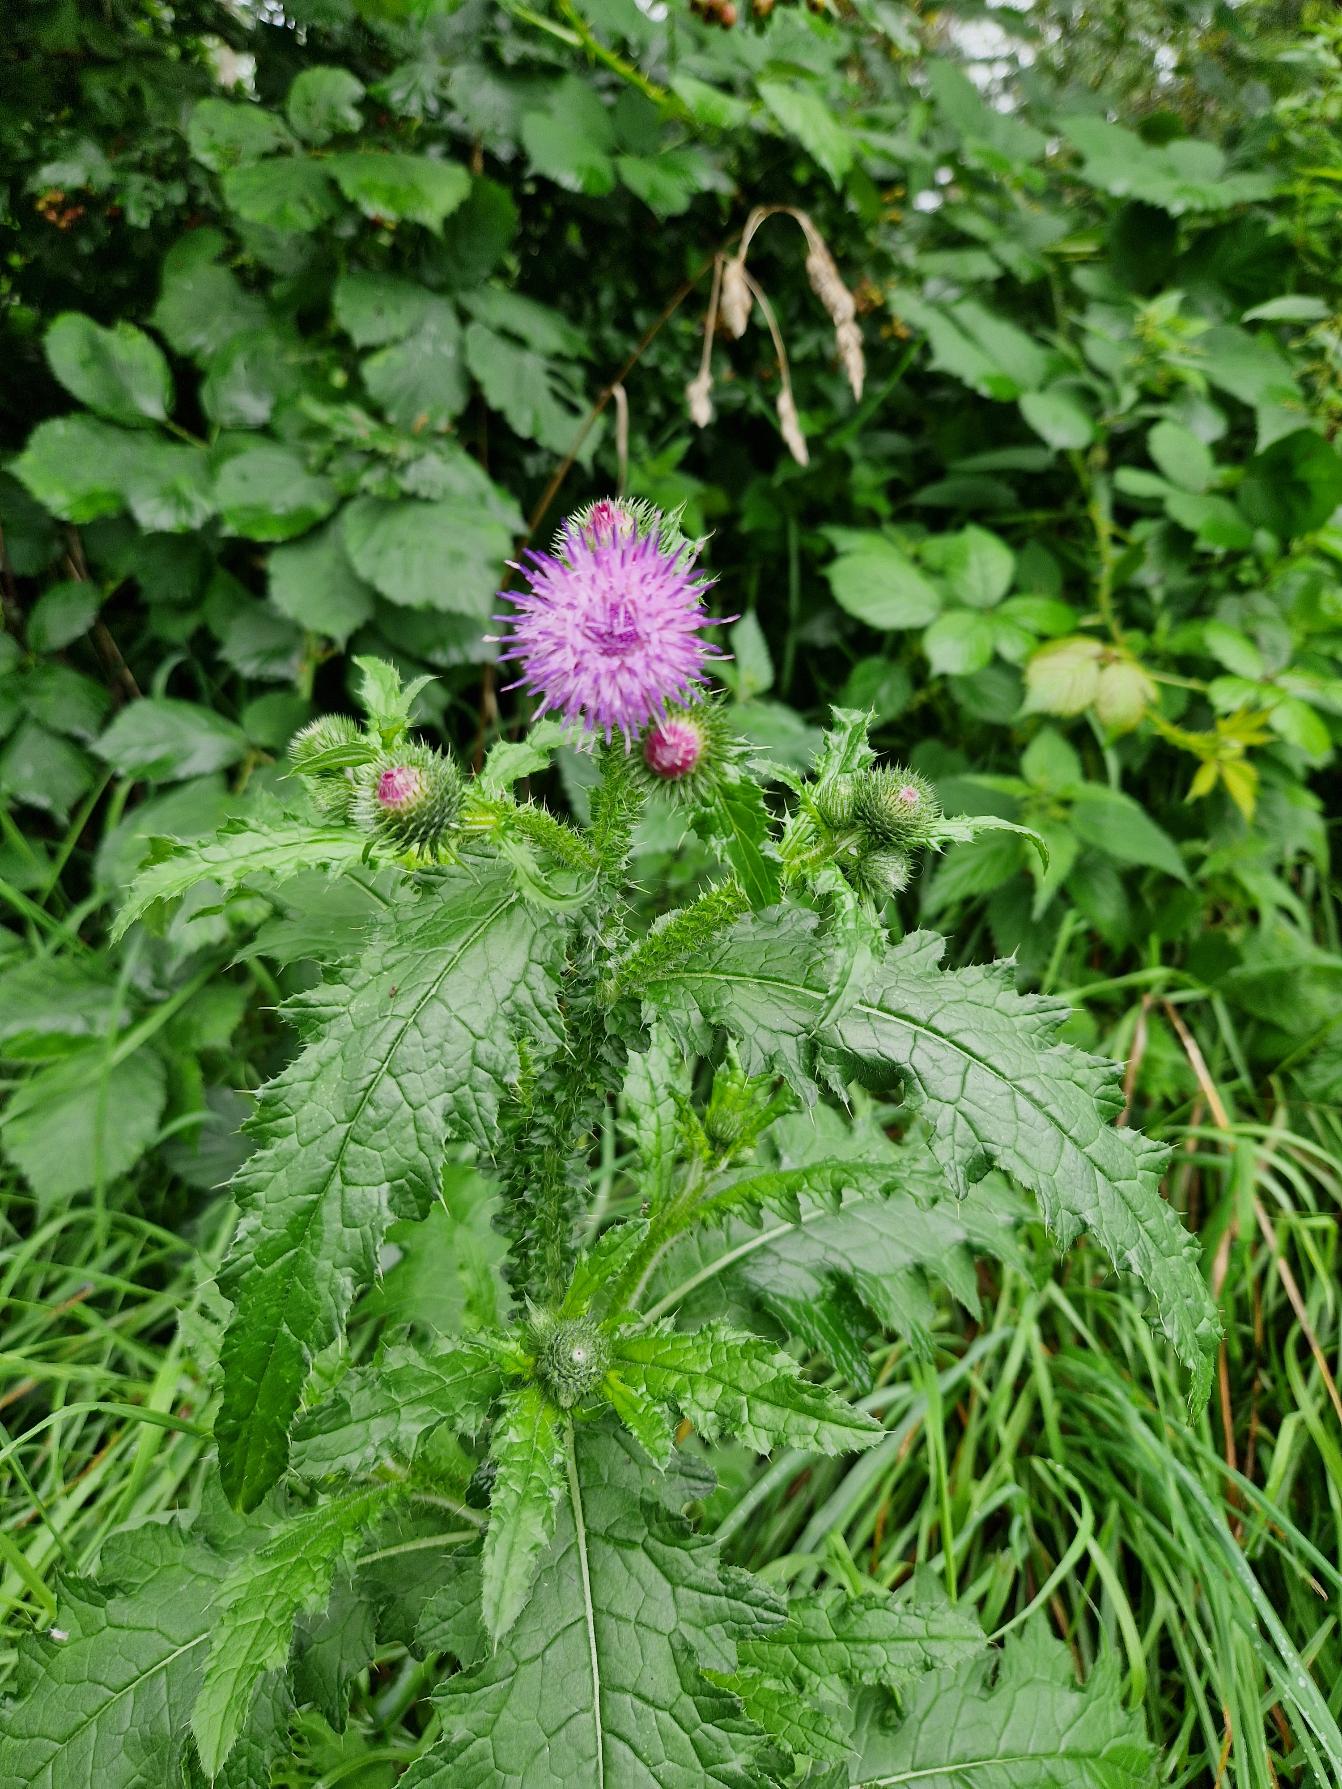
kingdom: Plantae
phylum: Tracheophyta
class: Magnoliopsida
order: Asterales
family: Asteraceae
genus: Carduus
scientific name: Carduus crispus
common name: Kruset tidsel
